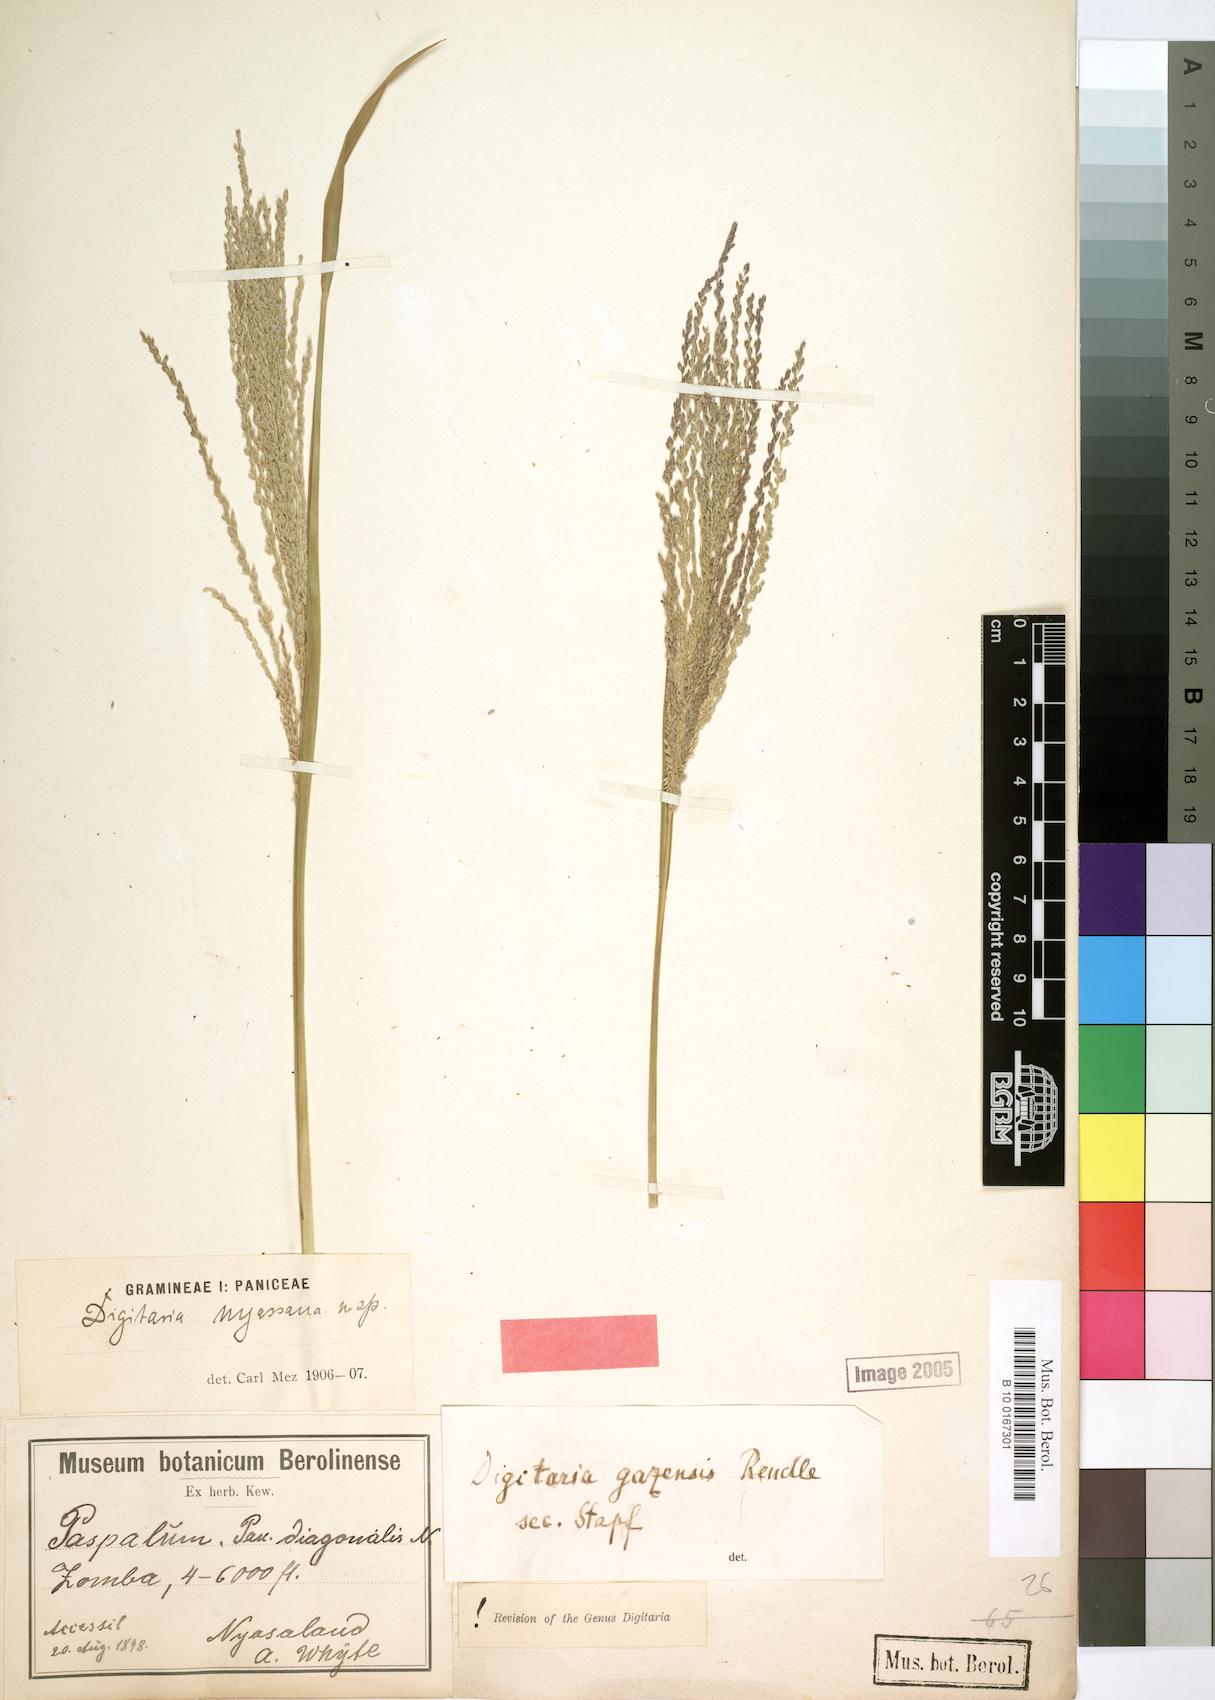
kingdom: Plantae
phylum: Tracheophyta
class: Liliopsida
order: Poales
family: Poaceae
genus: Digitaria
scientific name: Digitaria gazensis
